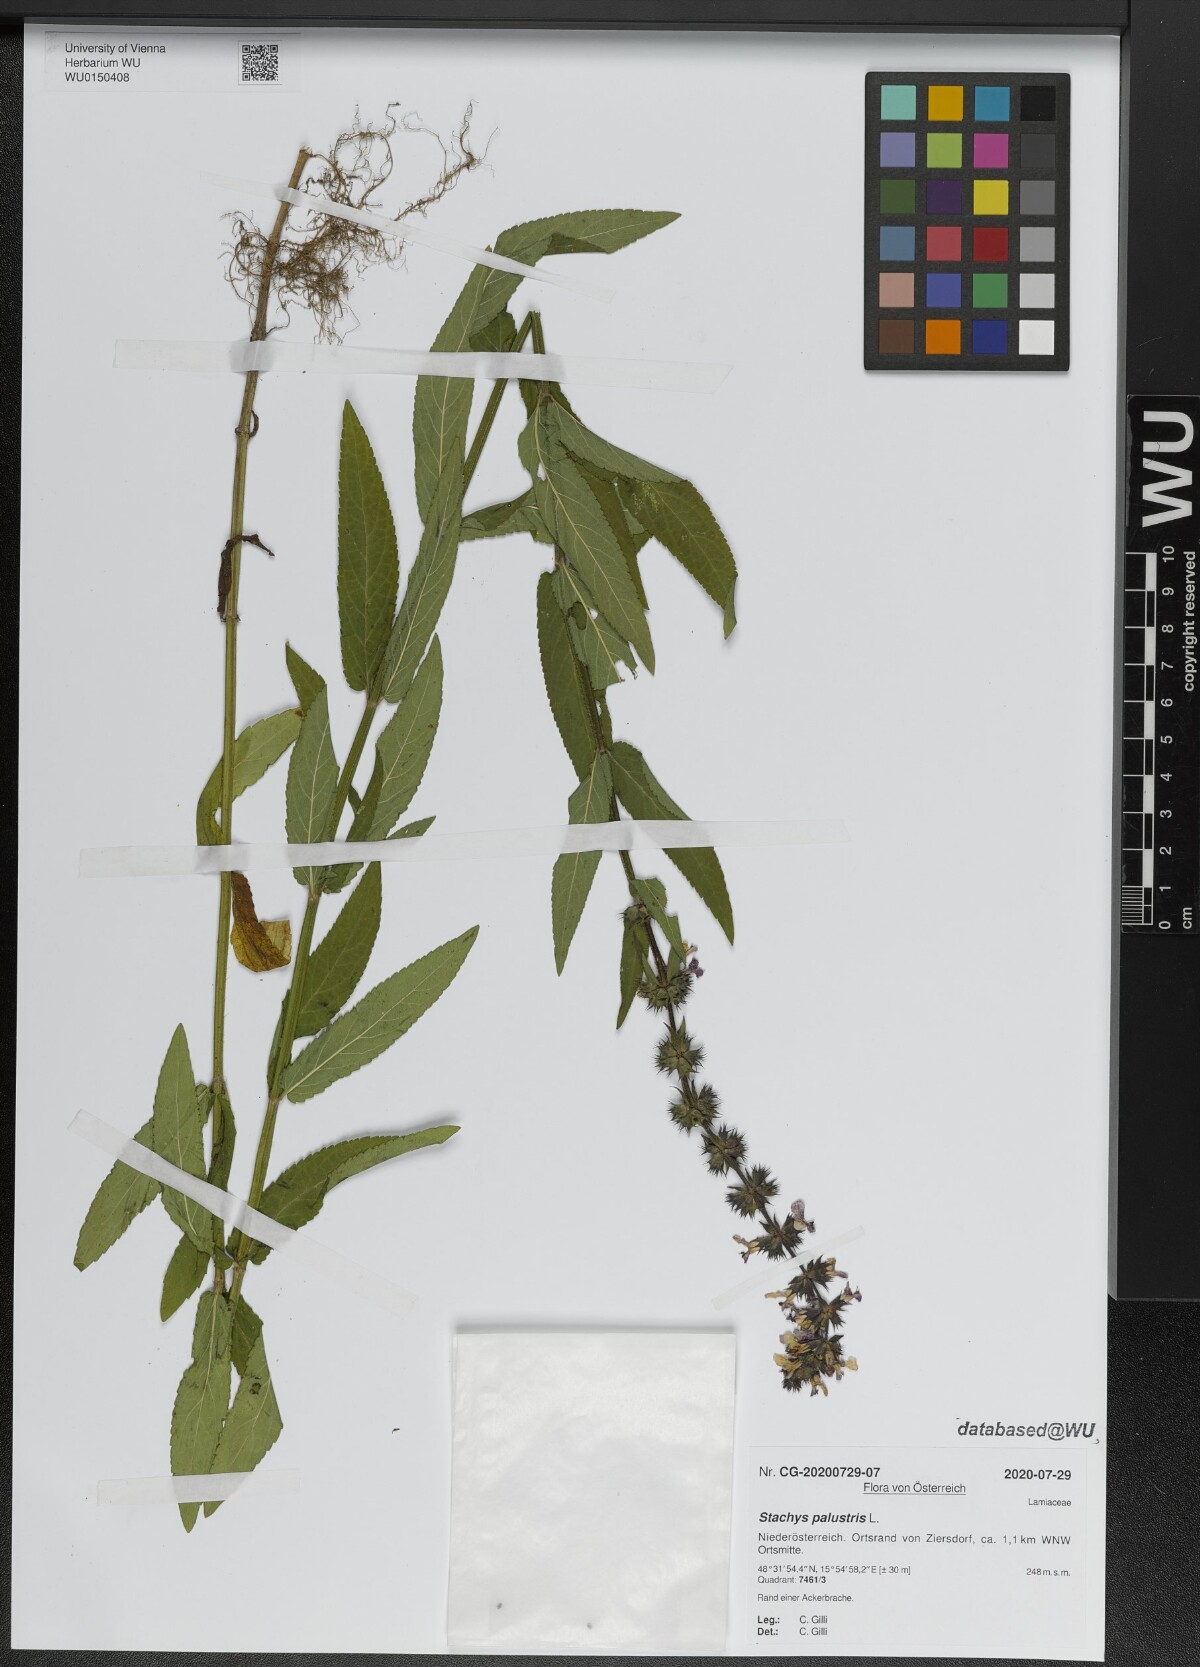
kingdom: Plantae
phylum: Tracheophyta
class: Magnoliopsida
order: Lamiales
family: Lamiaceae
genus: Stachys
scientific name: Stachys palustris
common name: Marsh woundwort
